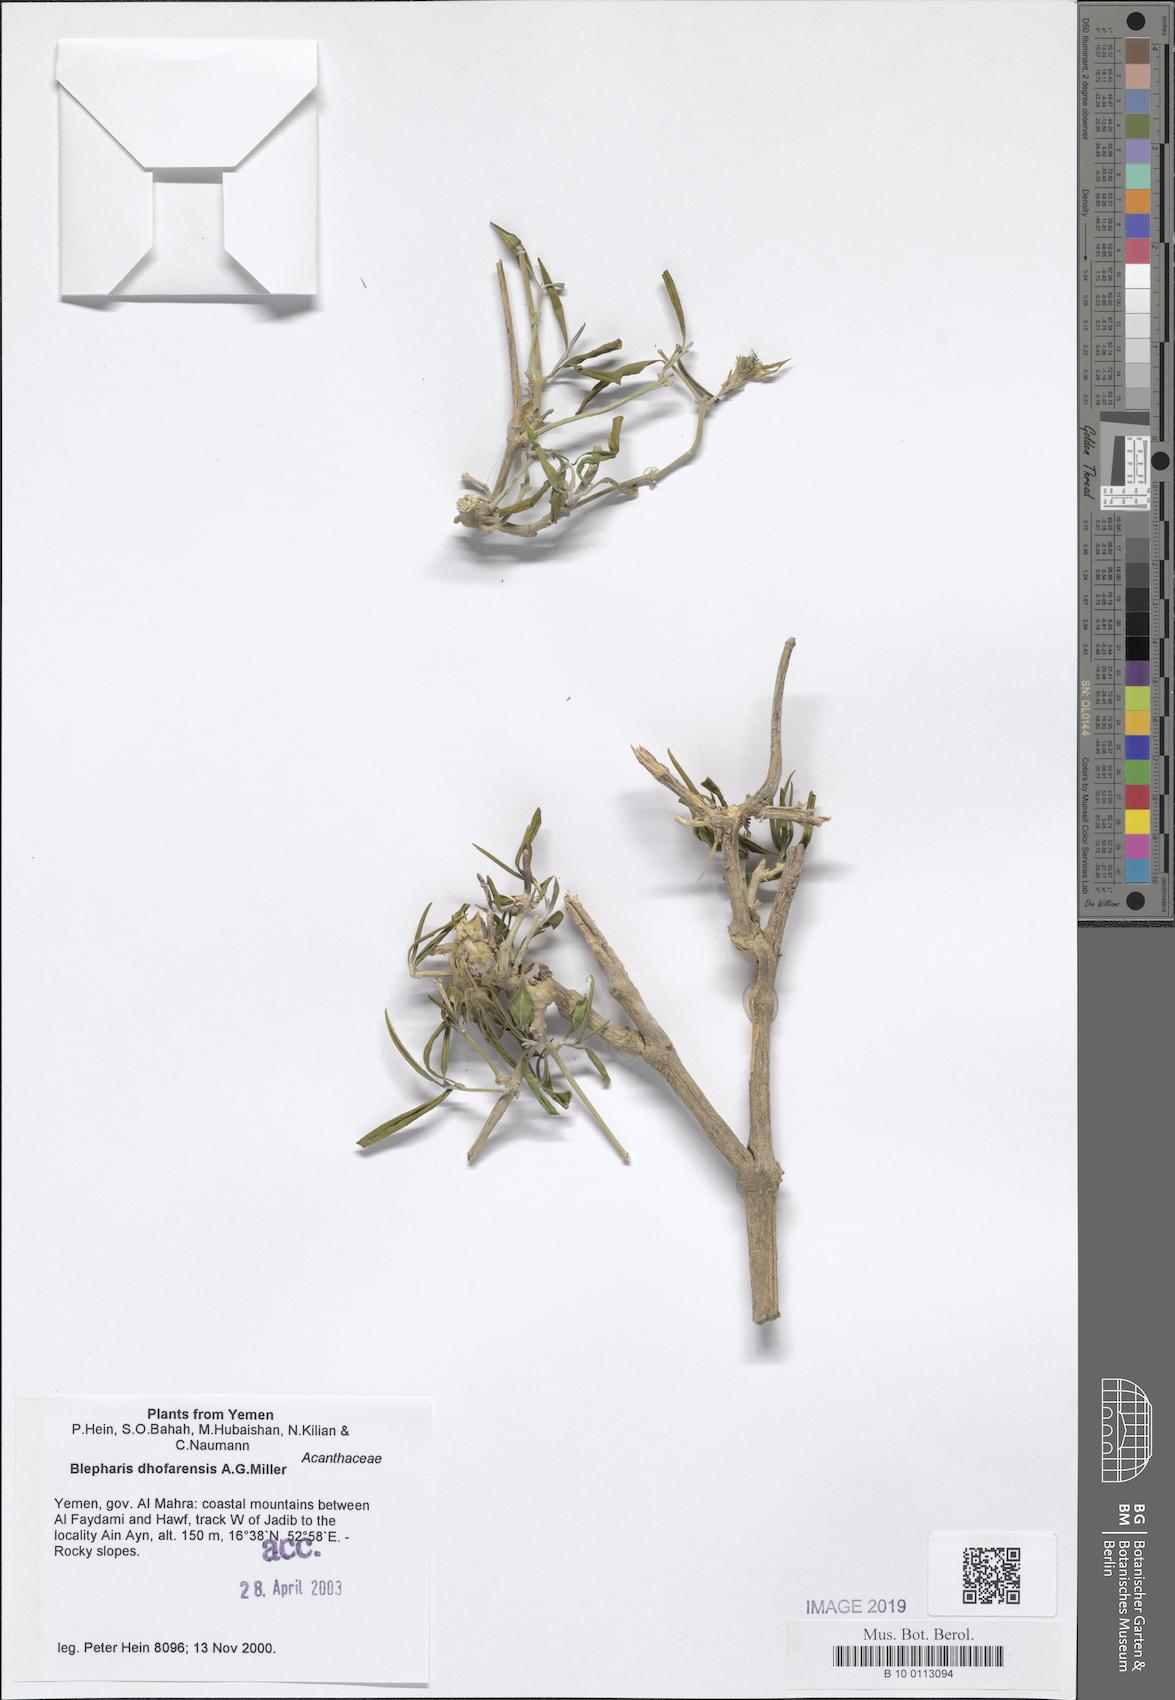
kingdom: Plantae
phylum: Tracheophyta
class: Magnoliopsida
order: Lamiales
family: Acanthaceae
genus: Blepharis
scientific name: Blepharis dhofarensis
